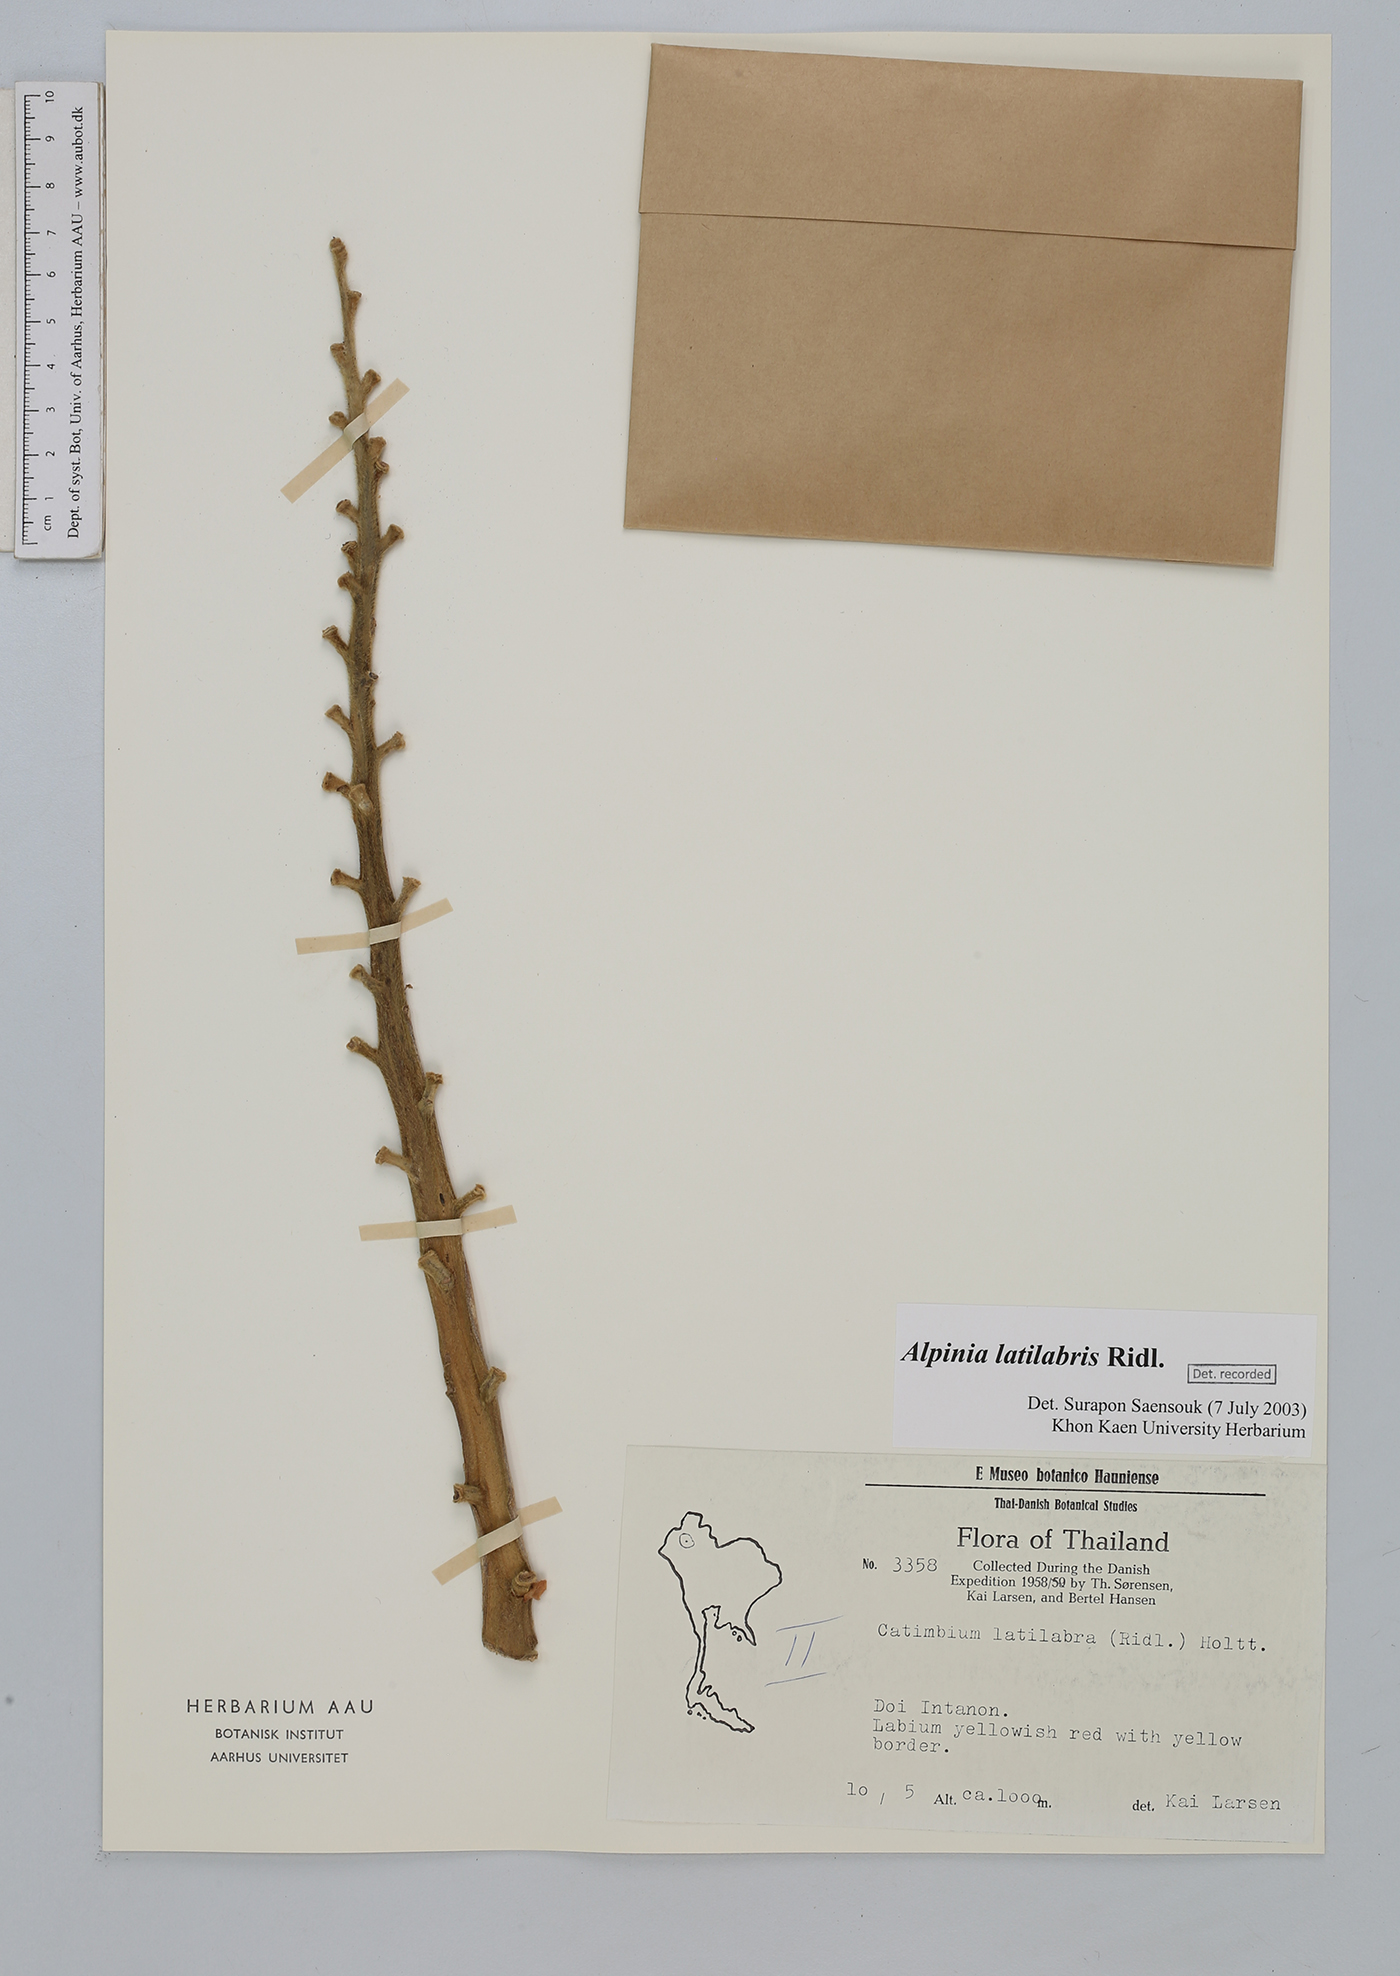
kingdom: Plantae
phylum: Tracheophyta
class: Liliopsida
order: Zingiberales
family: Zingiberaceae
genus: Alpinia
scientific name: Alpinia latilabris
